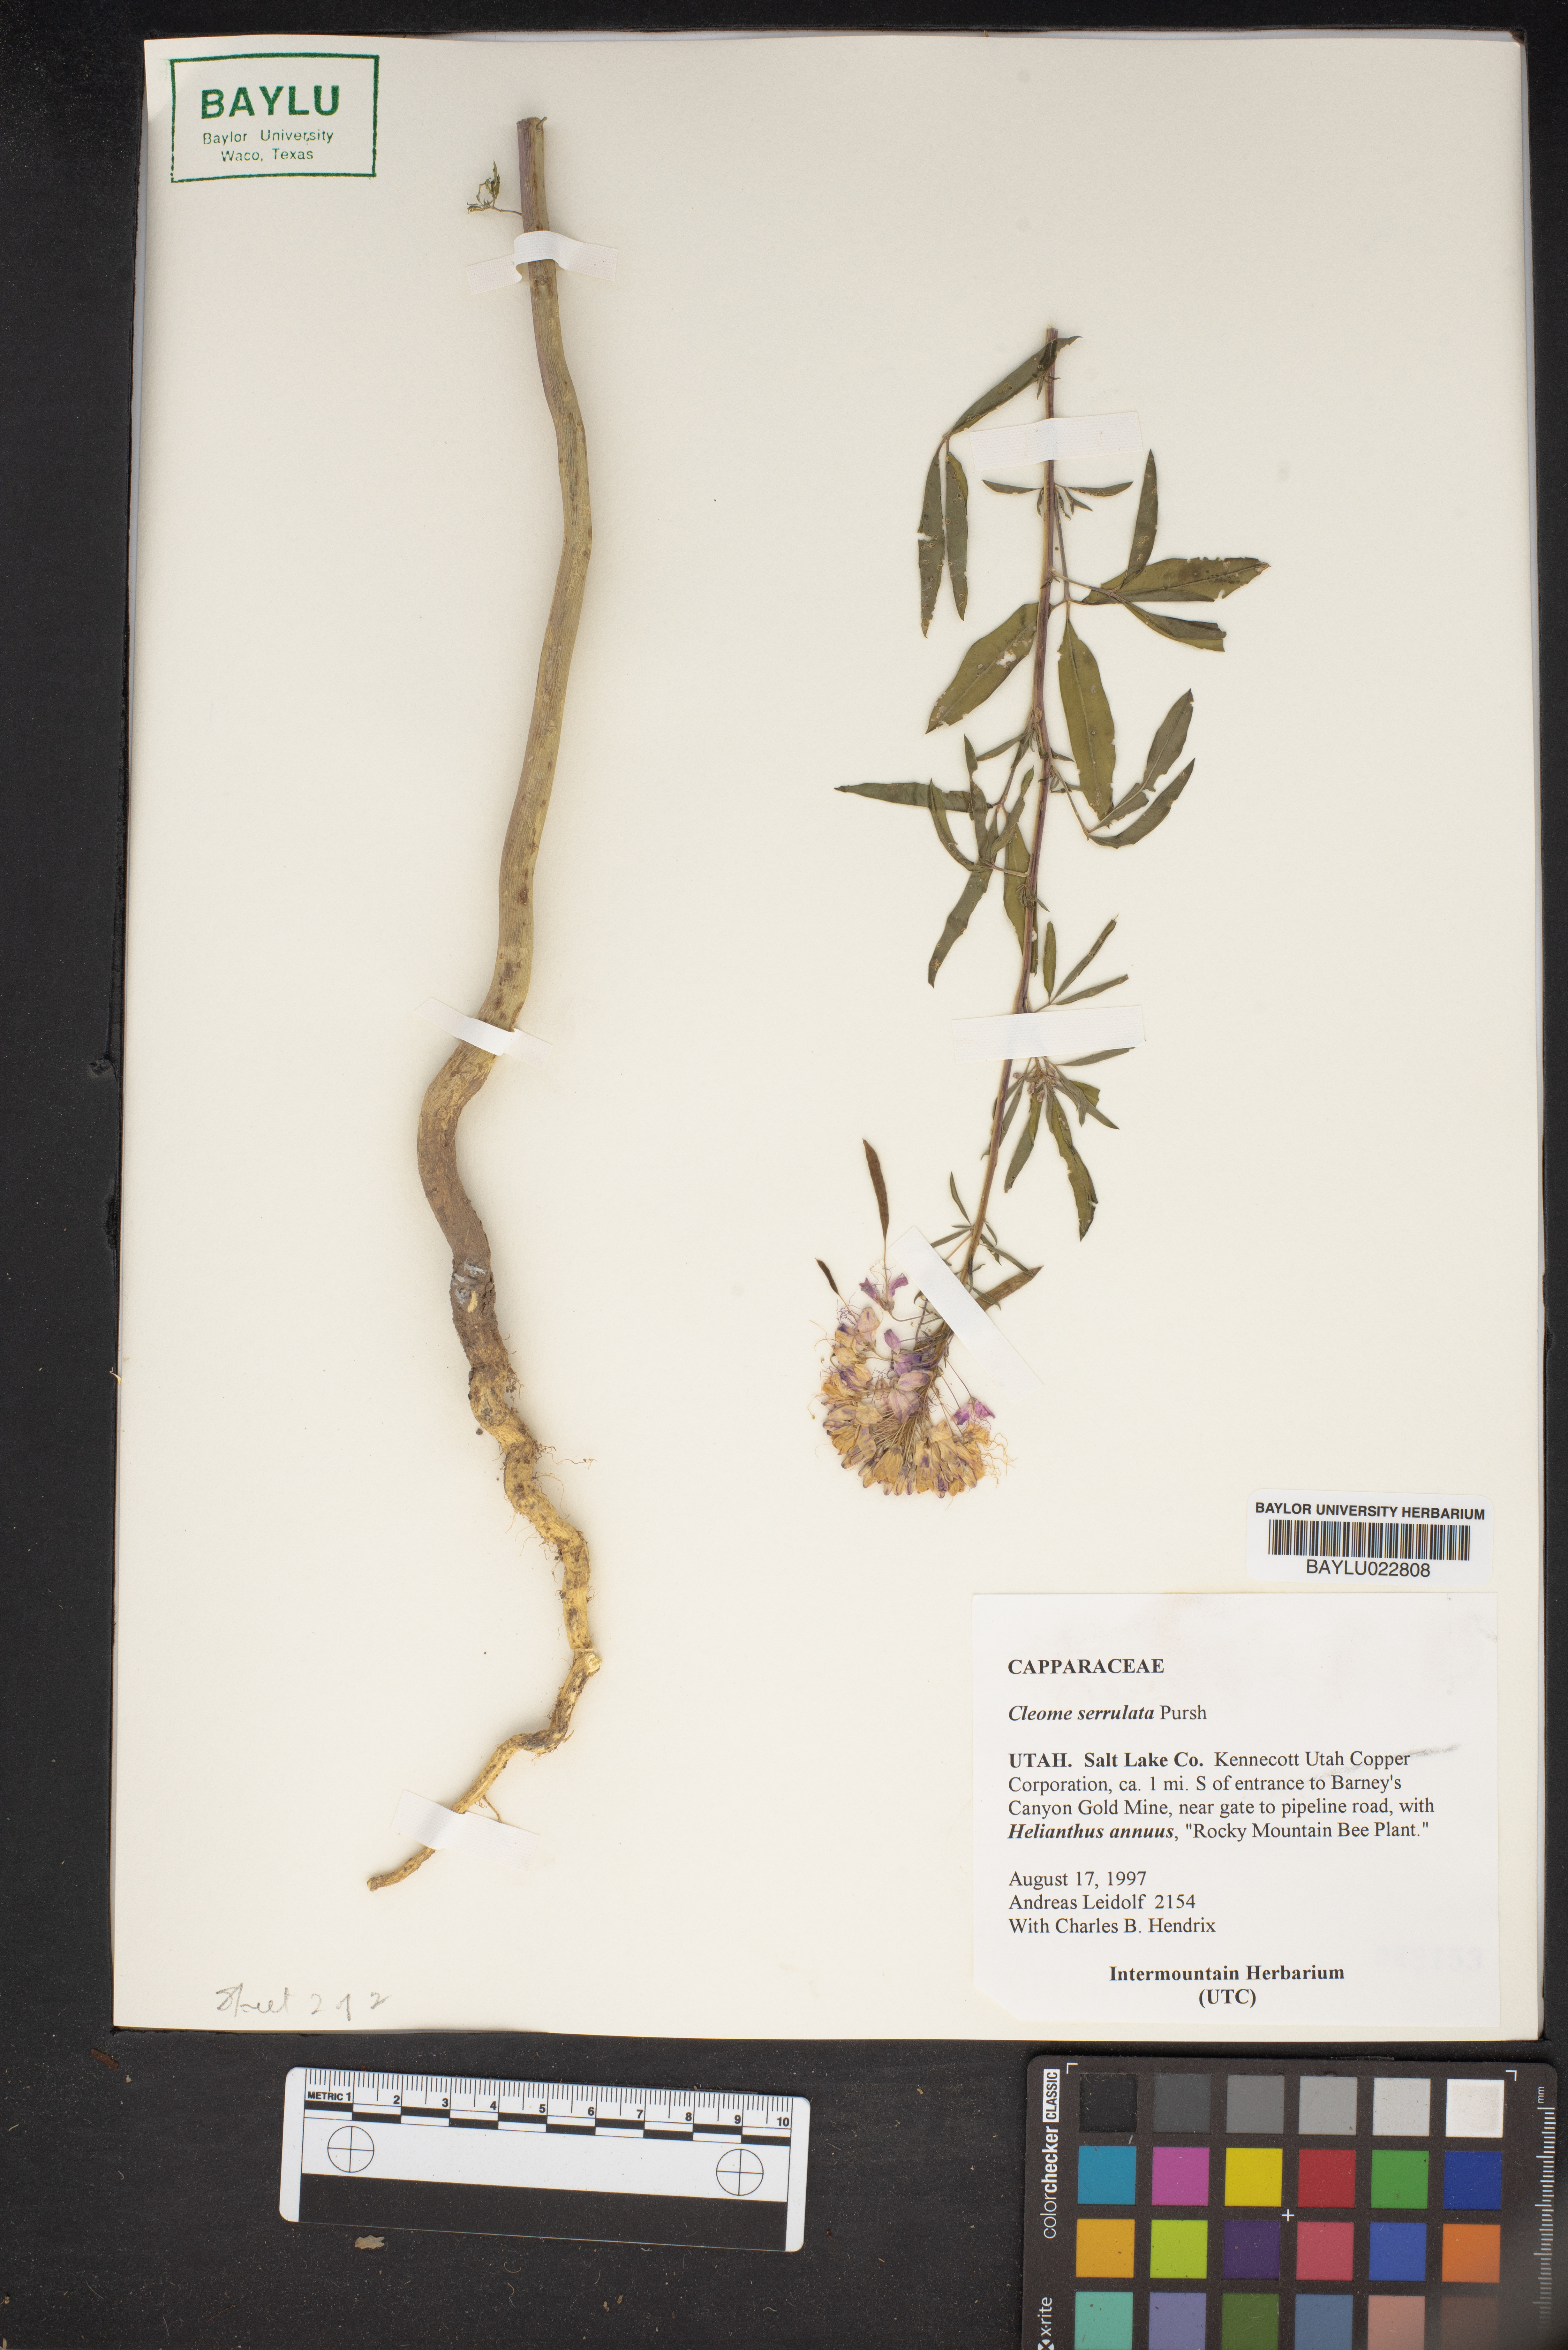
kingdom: Plantae
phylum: Tracheophyta
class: Magnoliopsida
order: Brassicales
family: Cleomaceae
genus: Cleomella
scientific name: Cleomella serrulata
